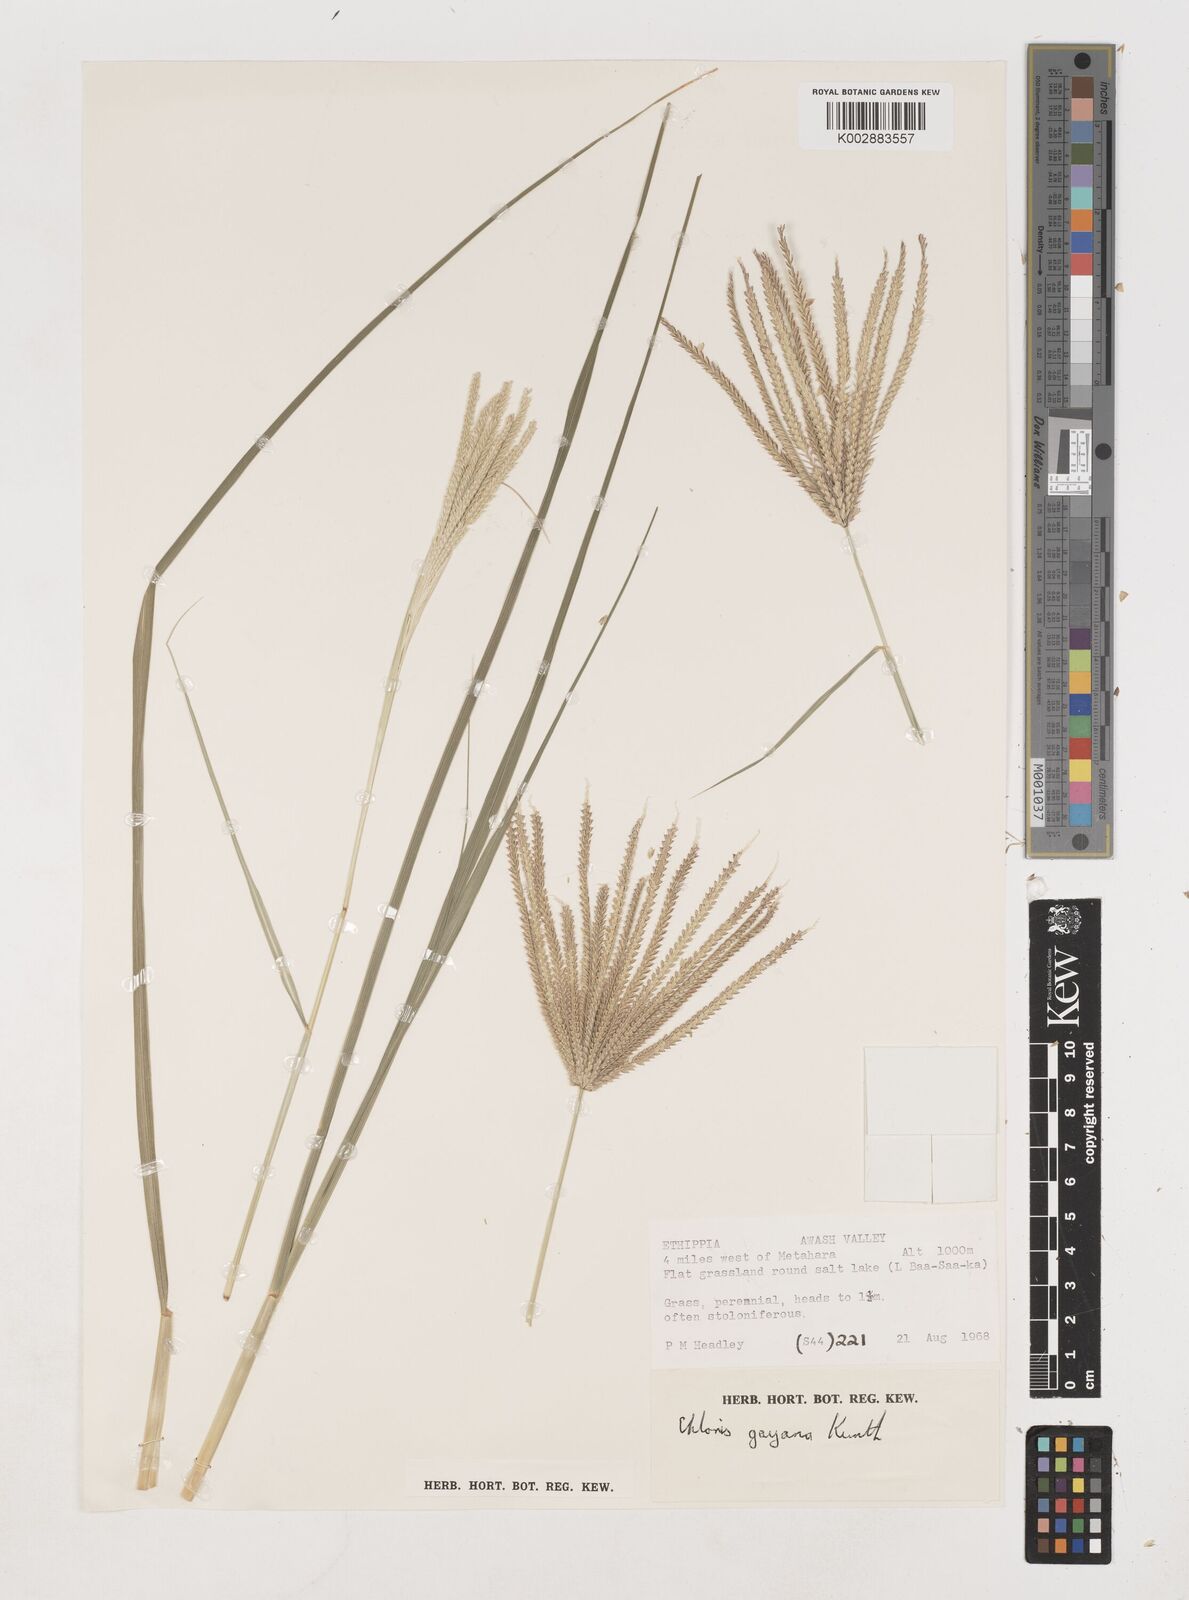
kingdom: Plantae
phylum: Tracheophyta
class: Liliopsida
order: Poales
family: Poaceae
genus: Chloris
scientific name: Chloris gayana
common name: Rhodes grass
